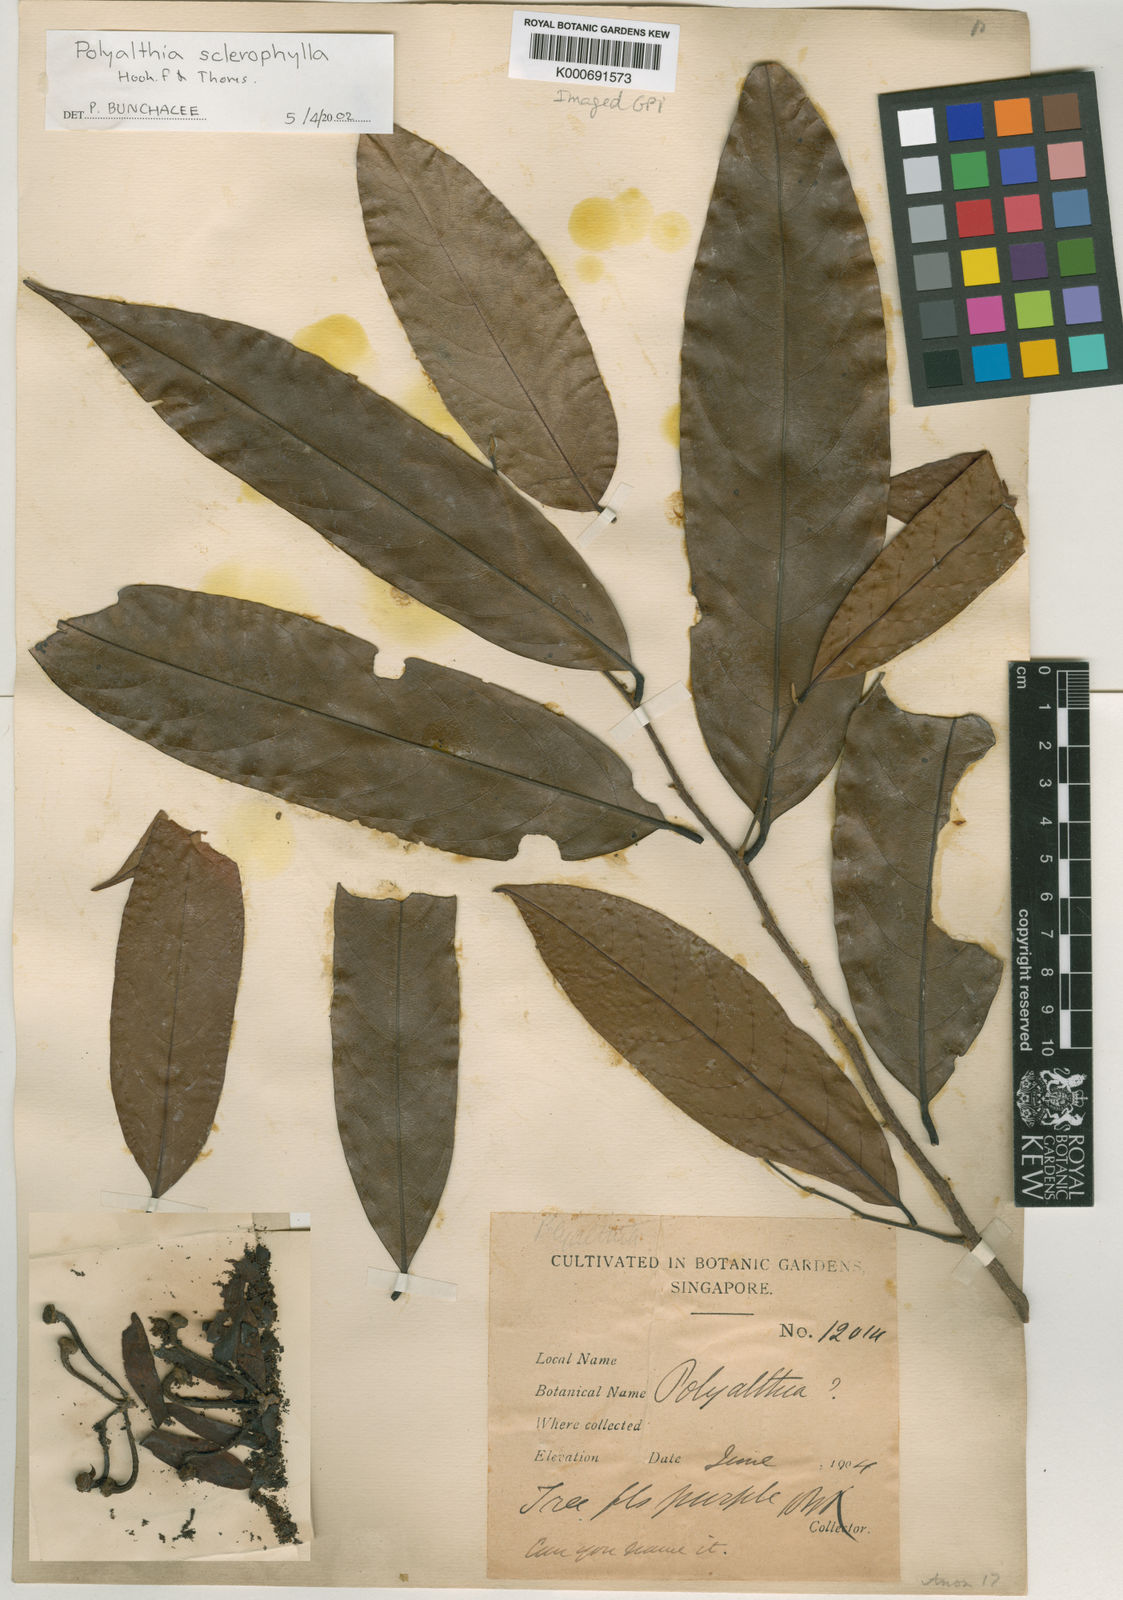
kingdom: Plantae
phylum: Tracheophyta
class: Magnoliopsida
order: Magnoliales
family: Annonaceae
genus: Polyalthia
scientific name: Polyalthia sclerophylla
